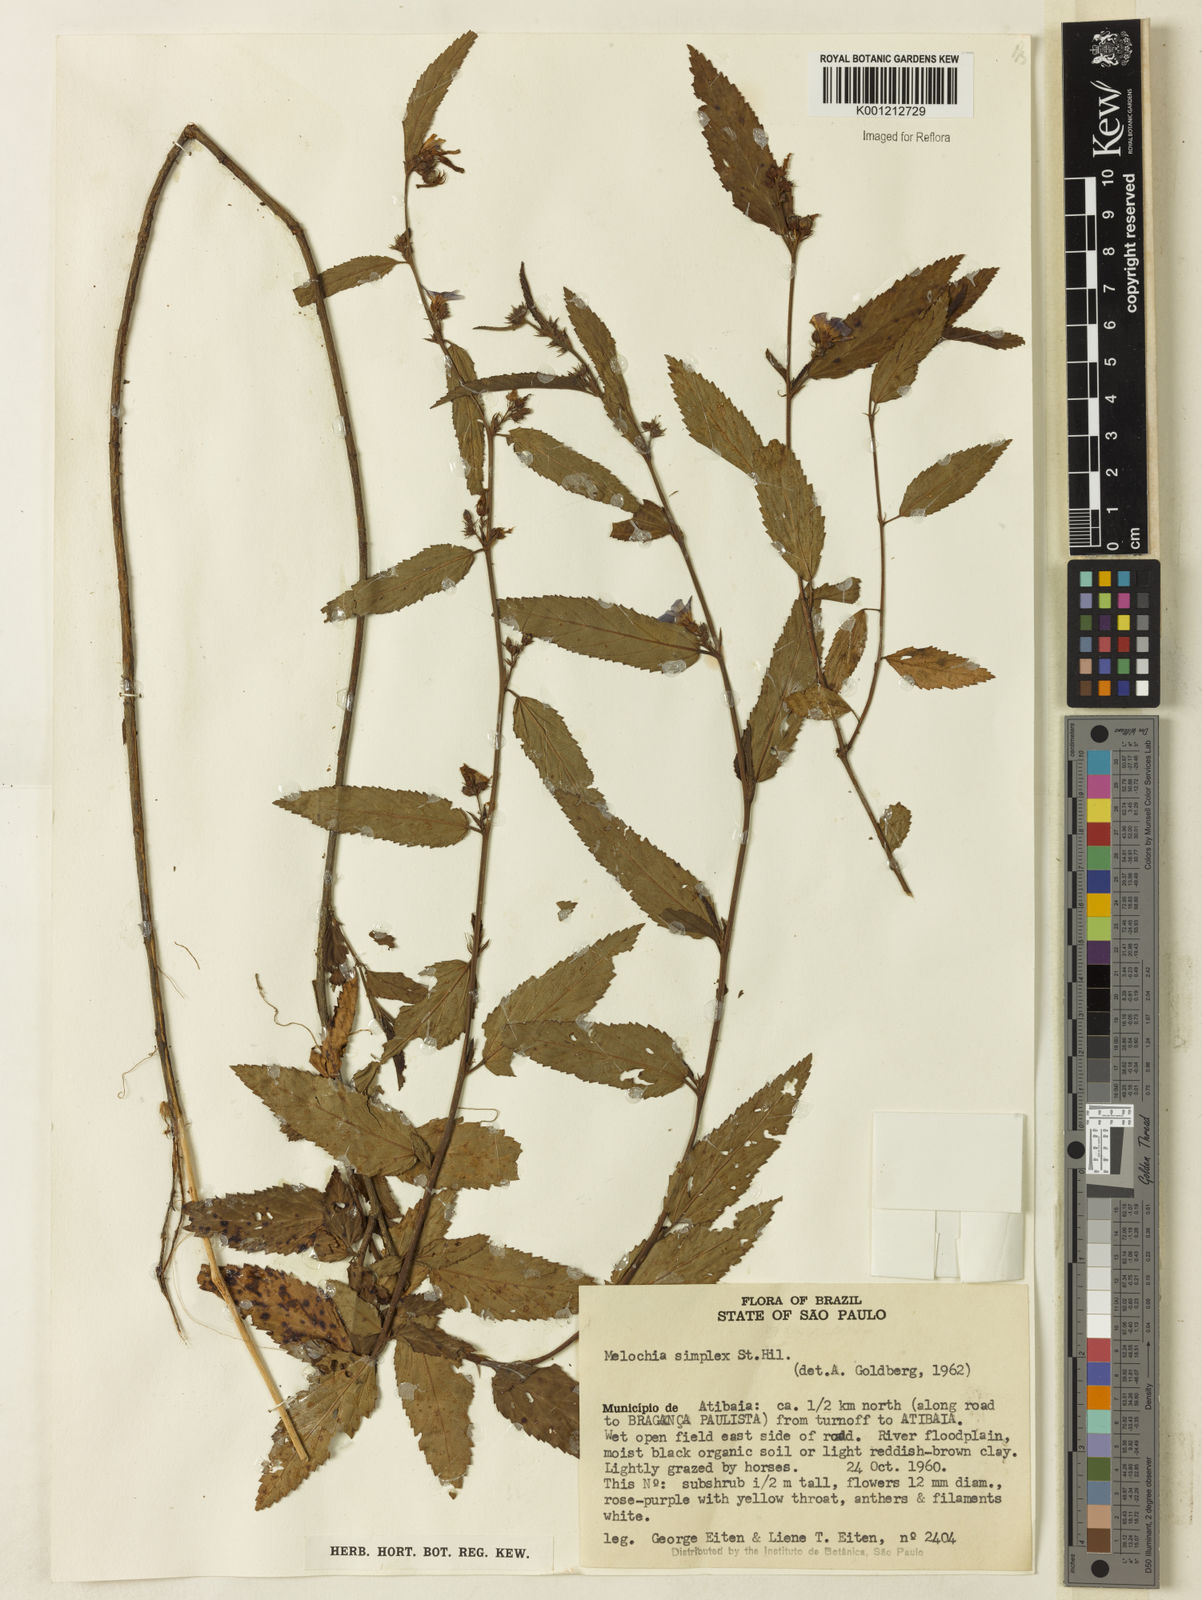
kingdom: Plantae
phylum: Tracheophyta
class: Magnoliopsida
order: Malvales
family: Malvaceae
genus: Melochia
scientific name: Melochia simplex
